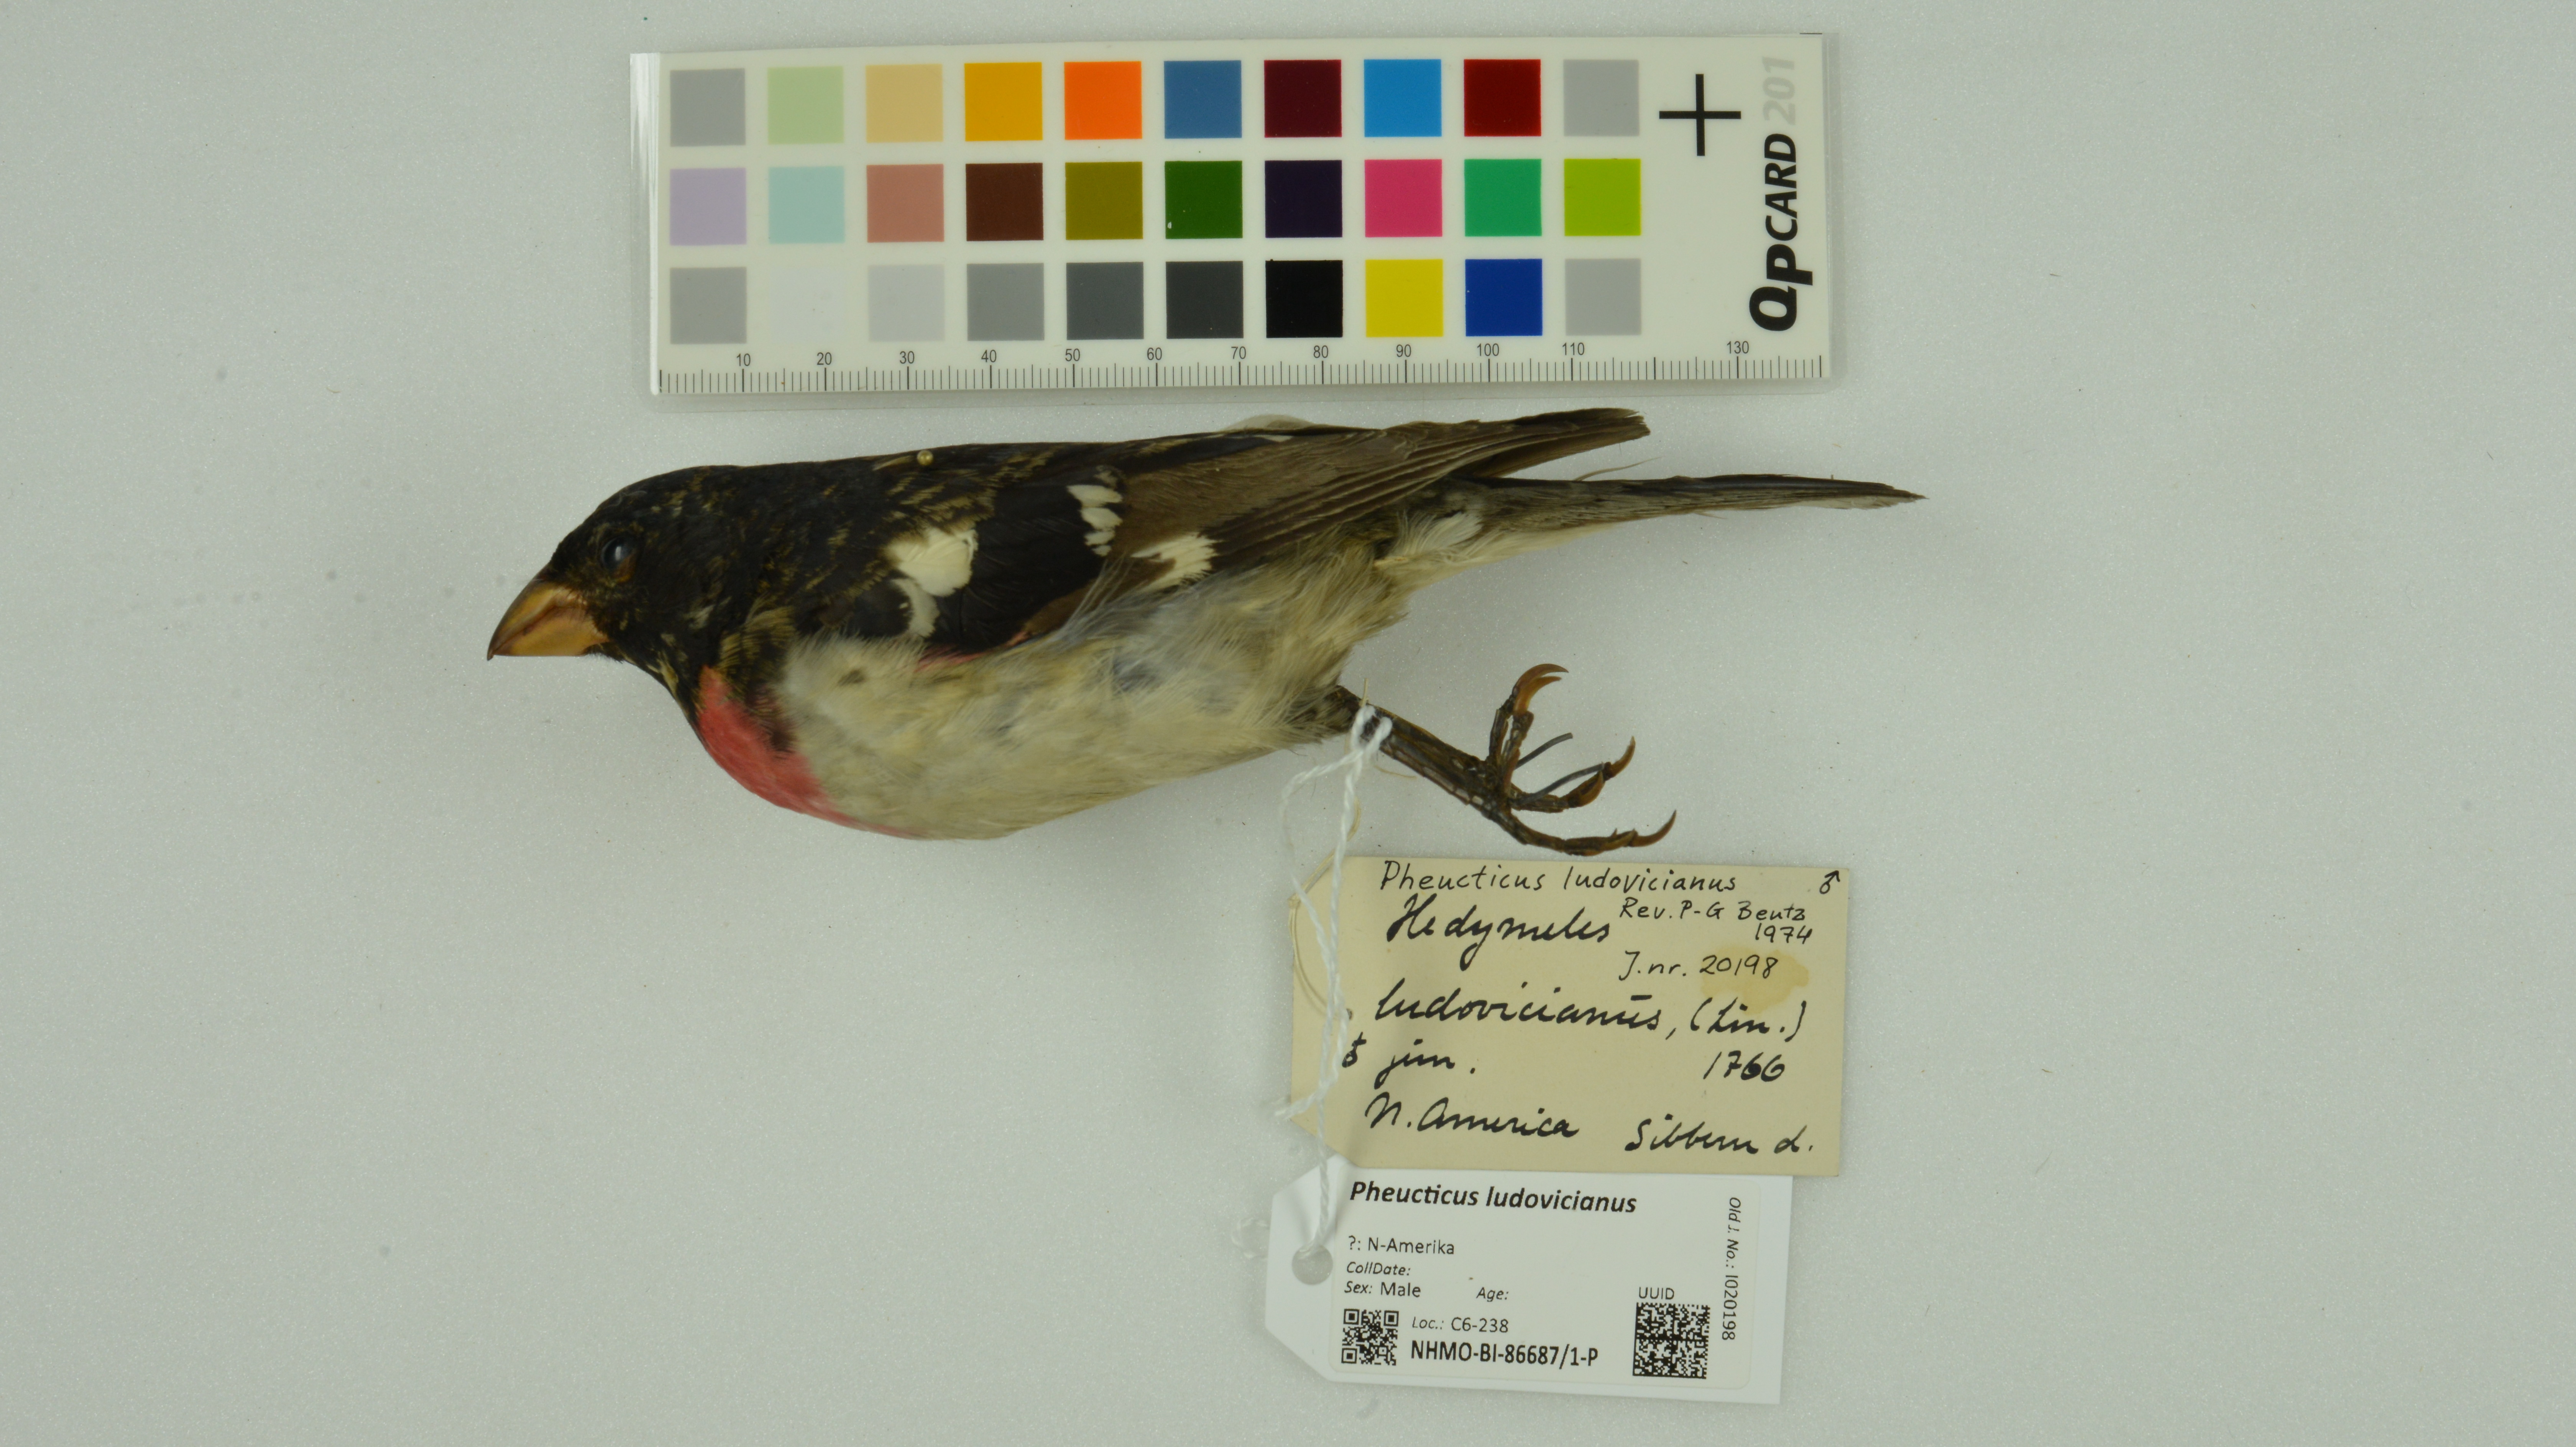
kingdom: Animalia
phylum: Chordata
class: Aves
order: Passeriformes
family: Cardinalidae
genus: Pheucticus
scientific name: Pheucticus ludovicianus
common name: Rose-breasted grosbeak
